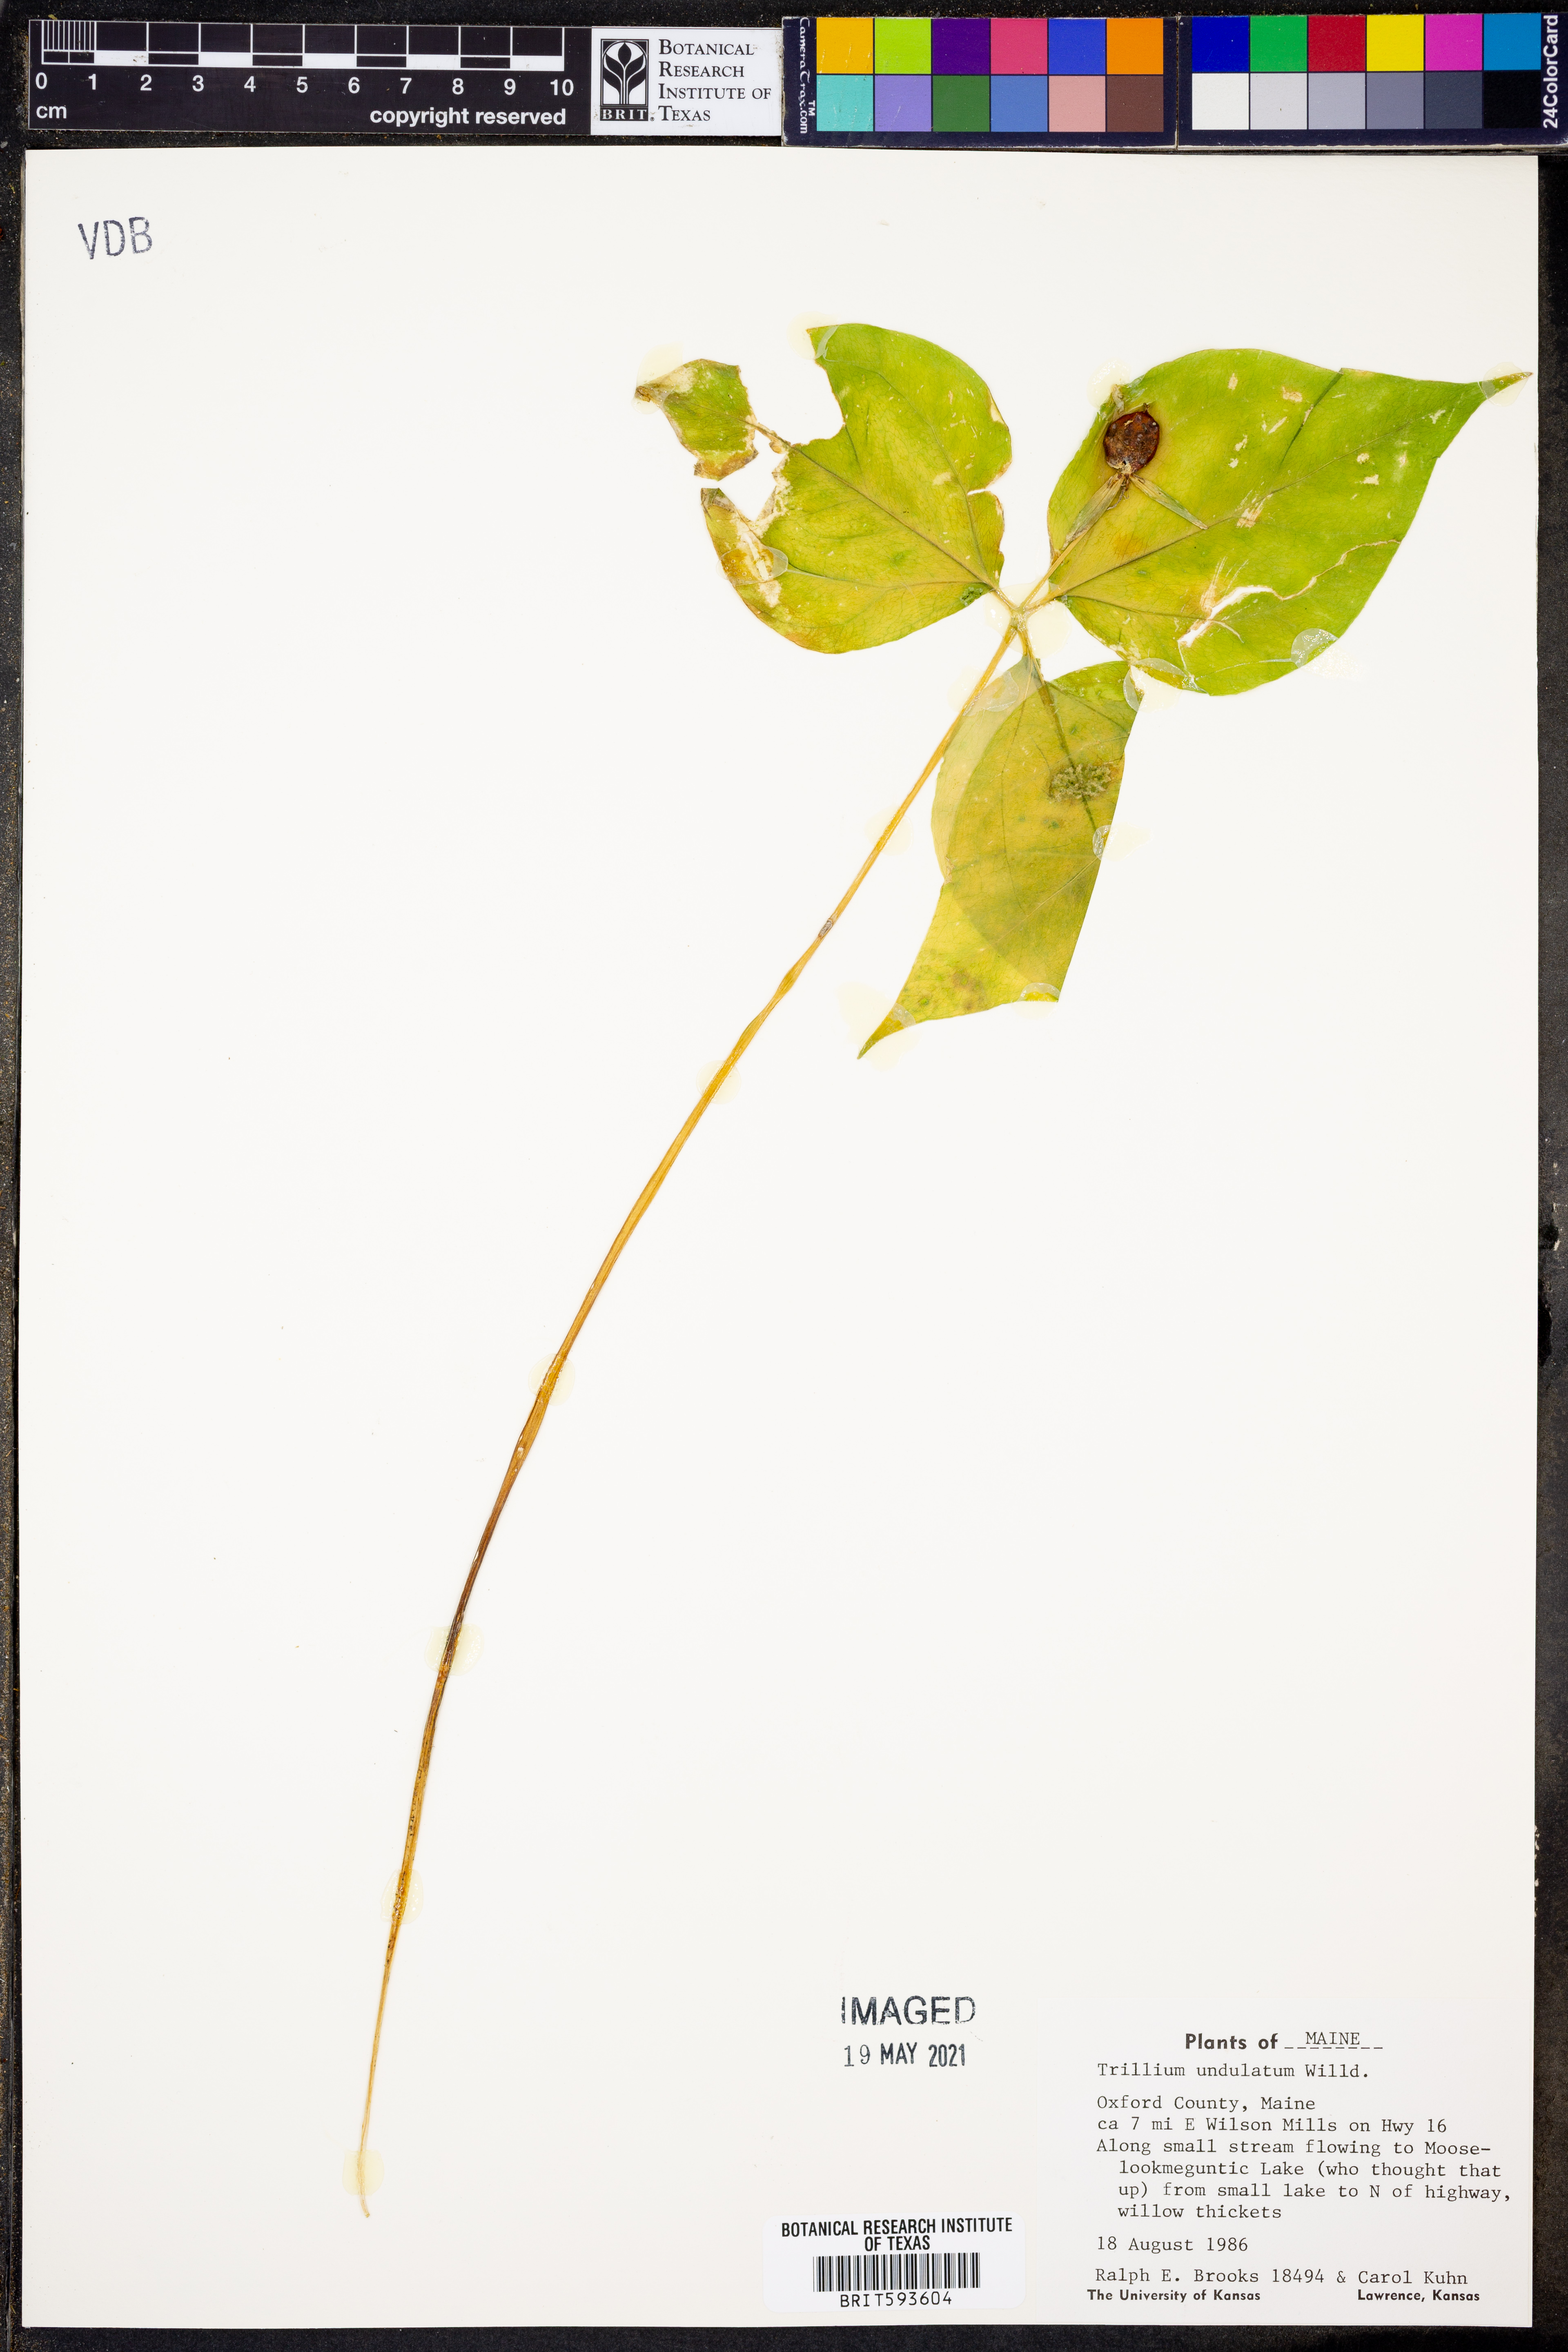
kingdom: Plantae
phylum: Tracheophyta
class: Liliopsida
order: Liliales
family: Melanthiaceae
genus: Trillium
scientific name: Trillium undulatum
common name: Paint trillium
